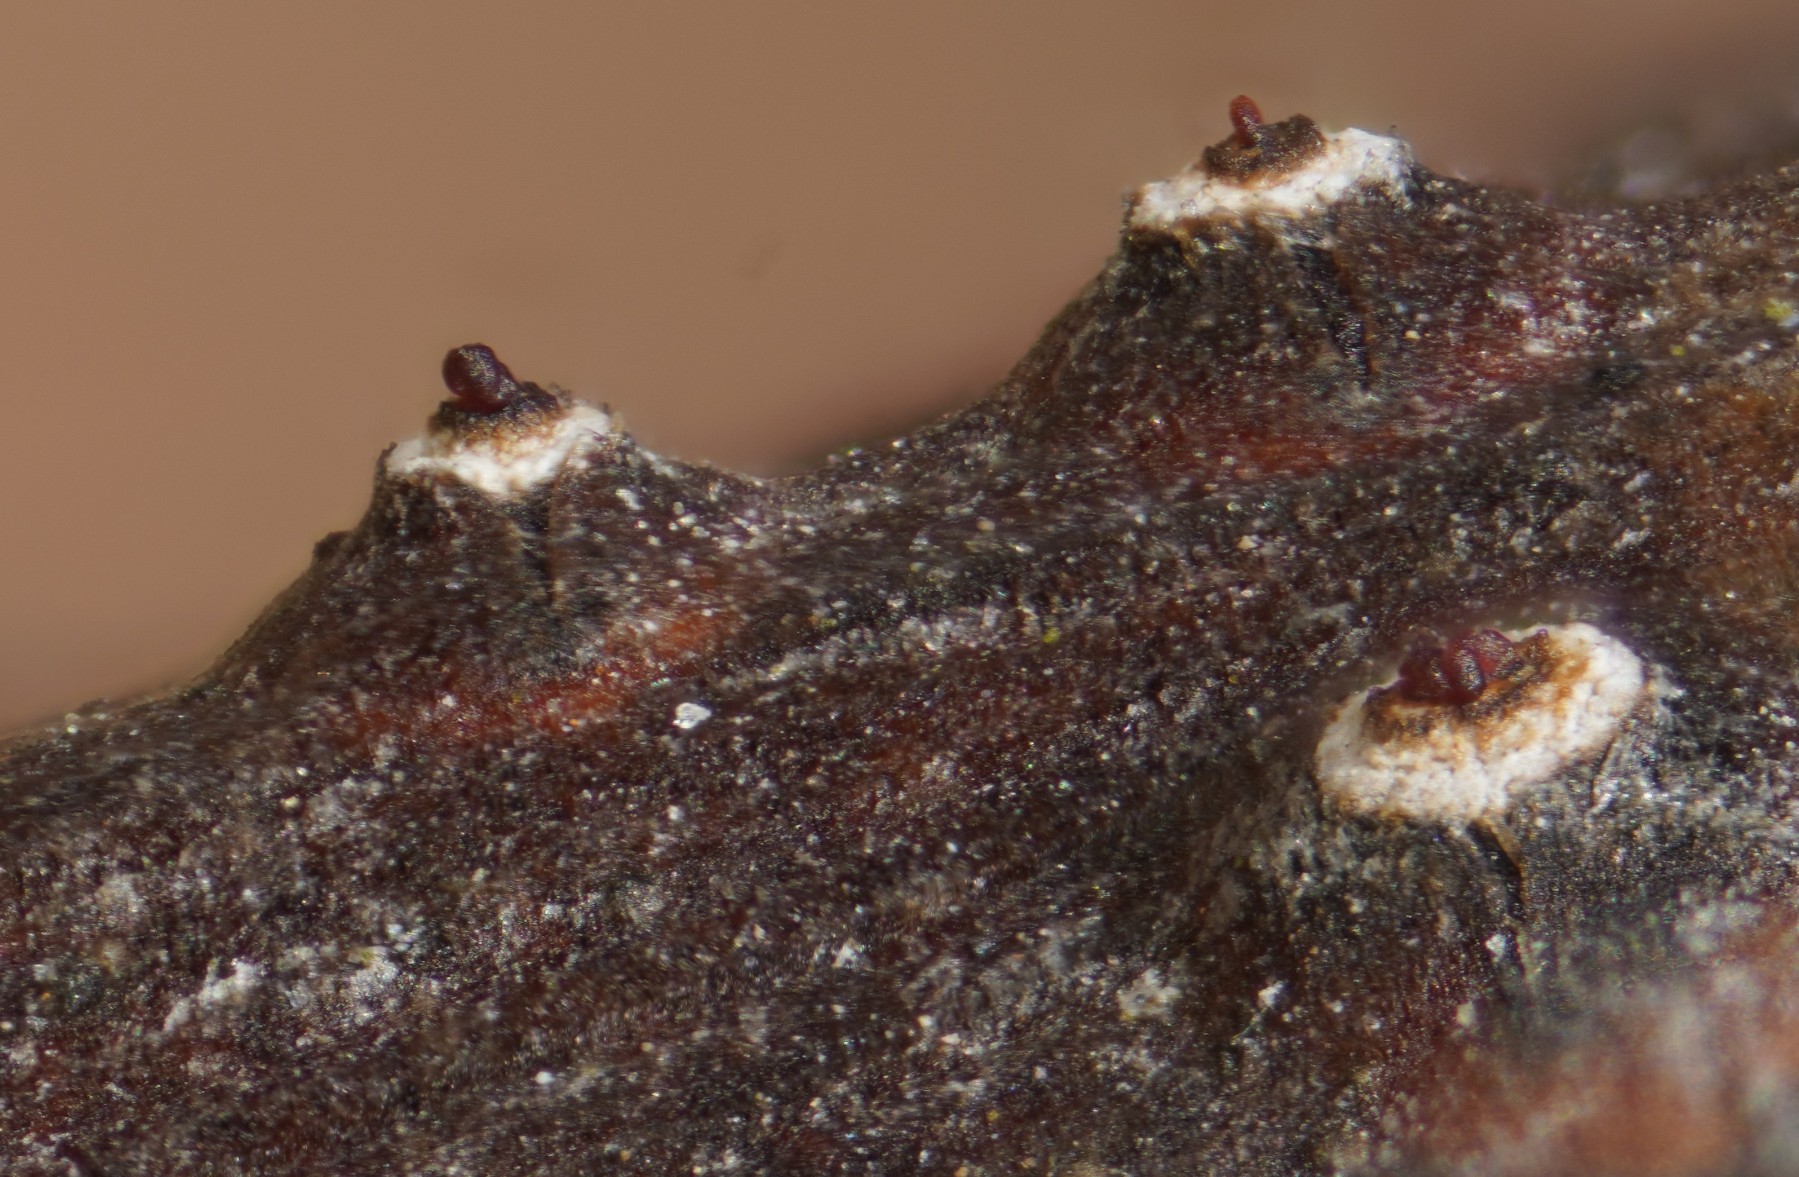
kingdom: Fungi
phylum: Ascomycota
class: Sordariomycetes
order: Diaporthales
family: Valsaceae
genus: Cytospora
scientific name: Cytospora
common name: kulknippe
